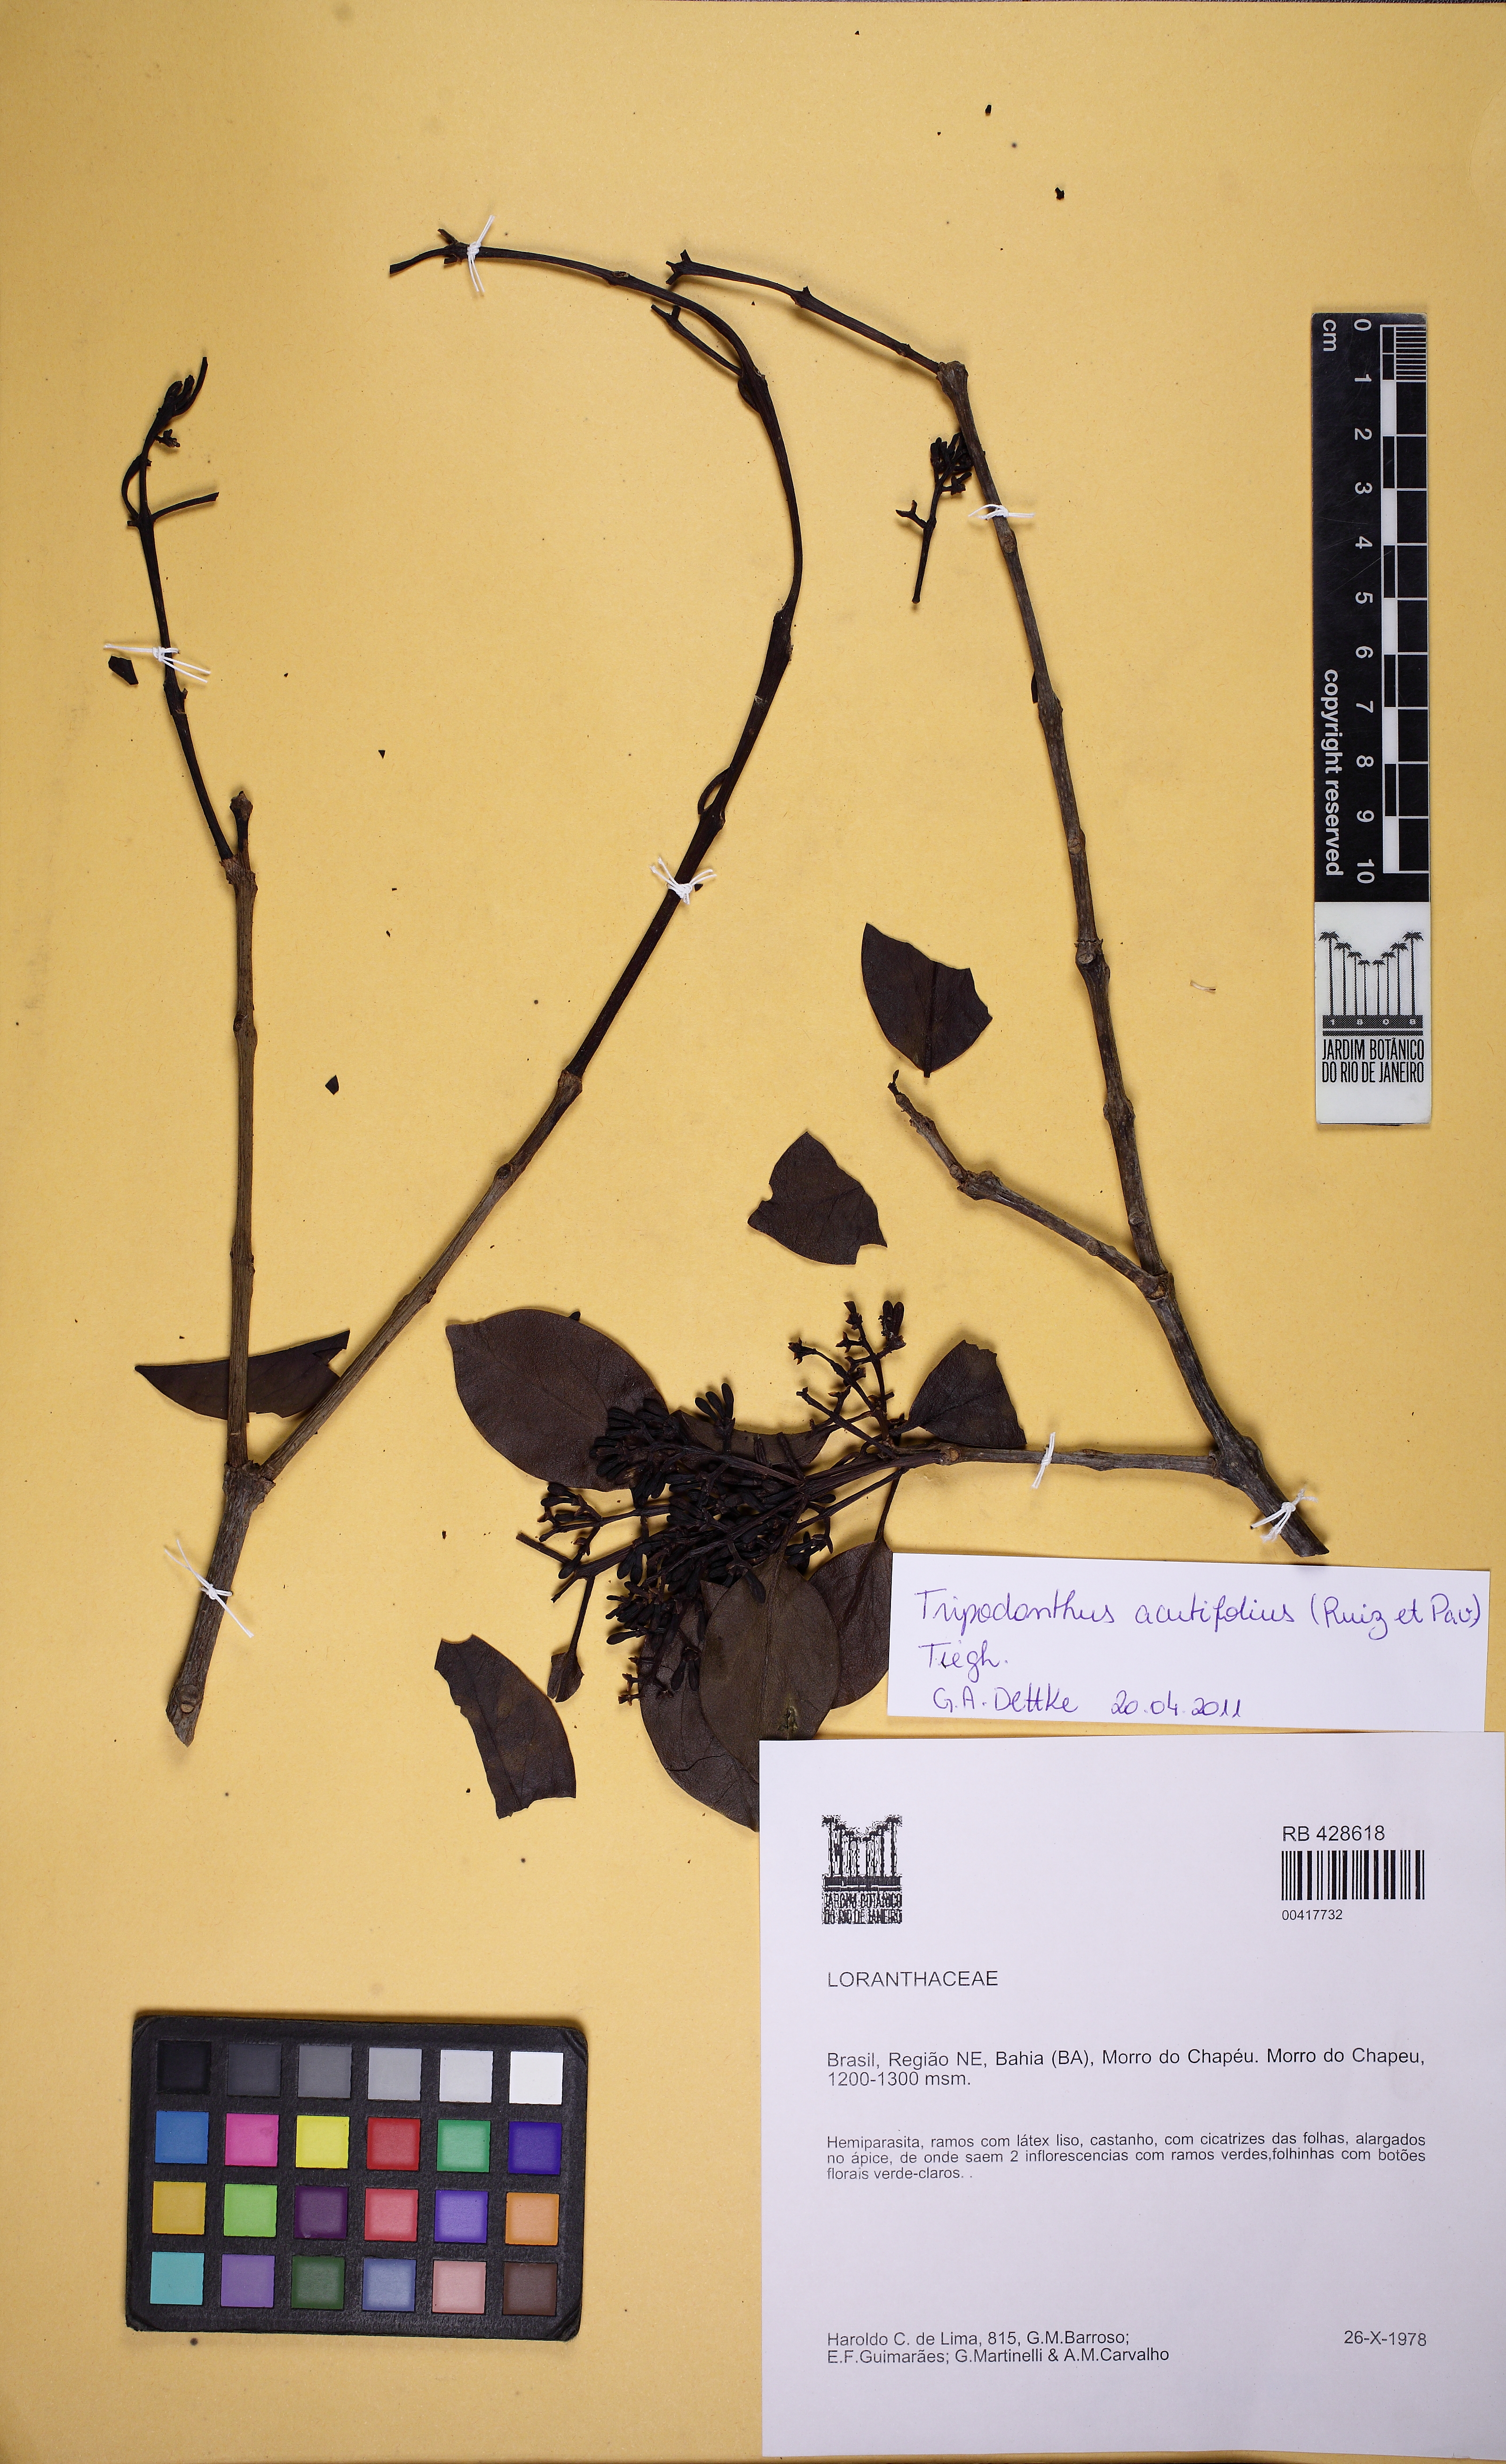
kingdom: Plantae
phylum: Tracheophyta
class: Magnoliopsida
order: Santalales
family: Loranthaceae
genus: Struthanthus
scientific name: Struthanthus syringifolius
